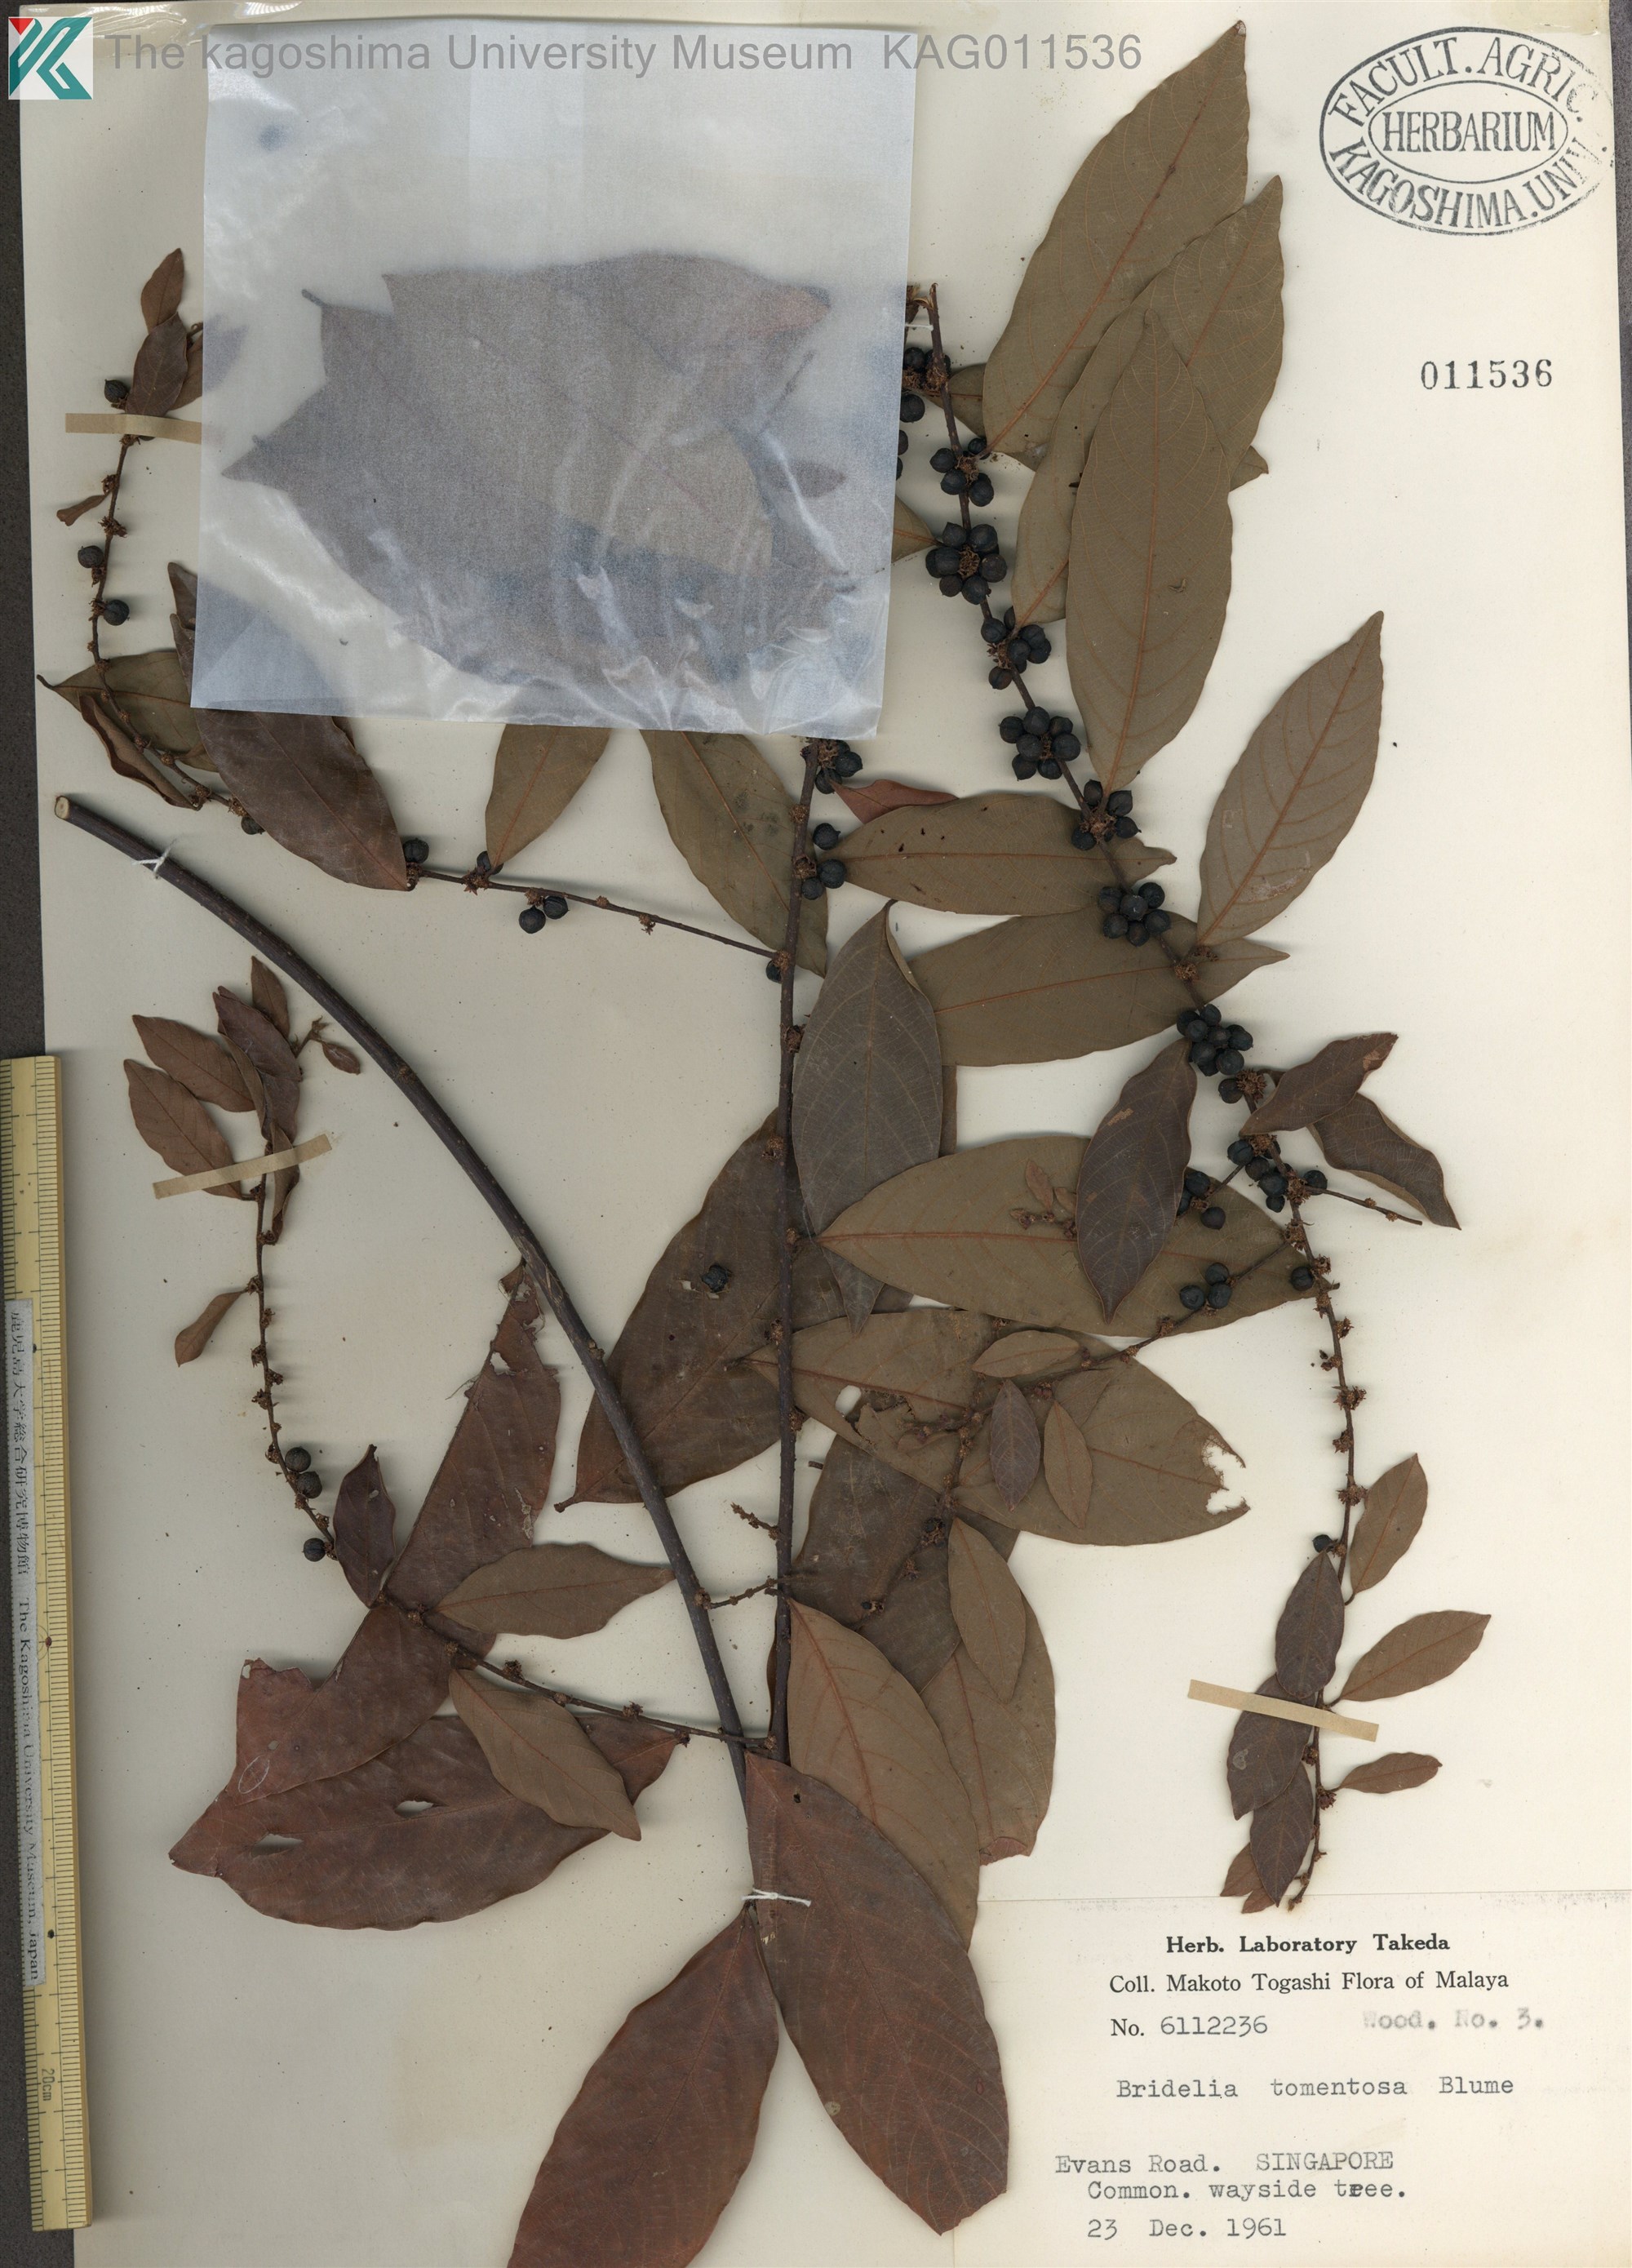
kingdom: Plantae
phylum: Tracheophyta
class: Magnoliopsida
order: Malpighiales
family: Phyllanthaceae
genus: Bridelia
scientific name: Bridelia tomentosa
